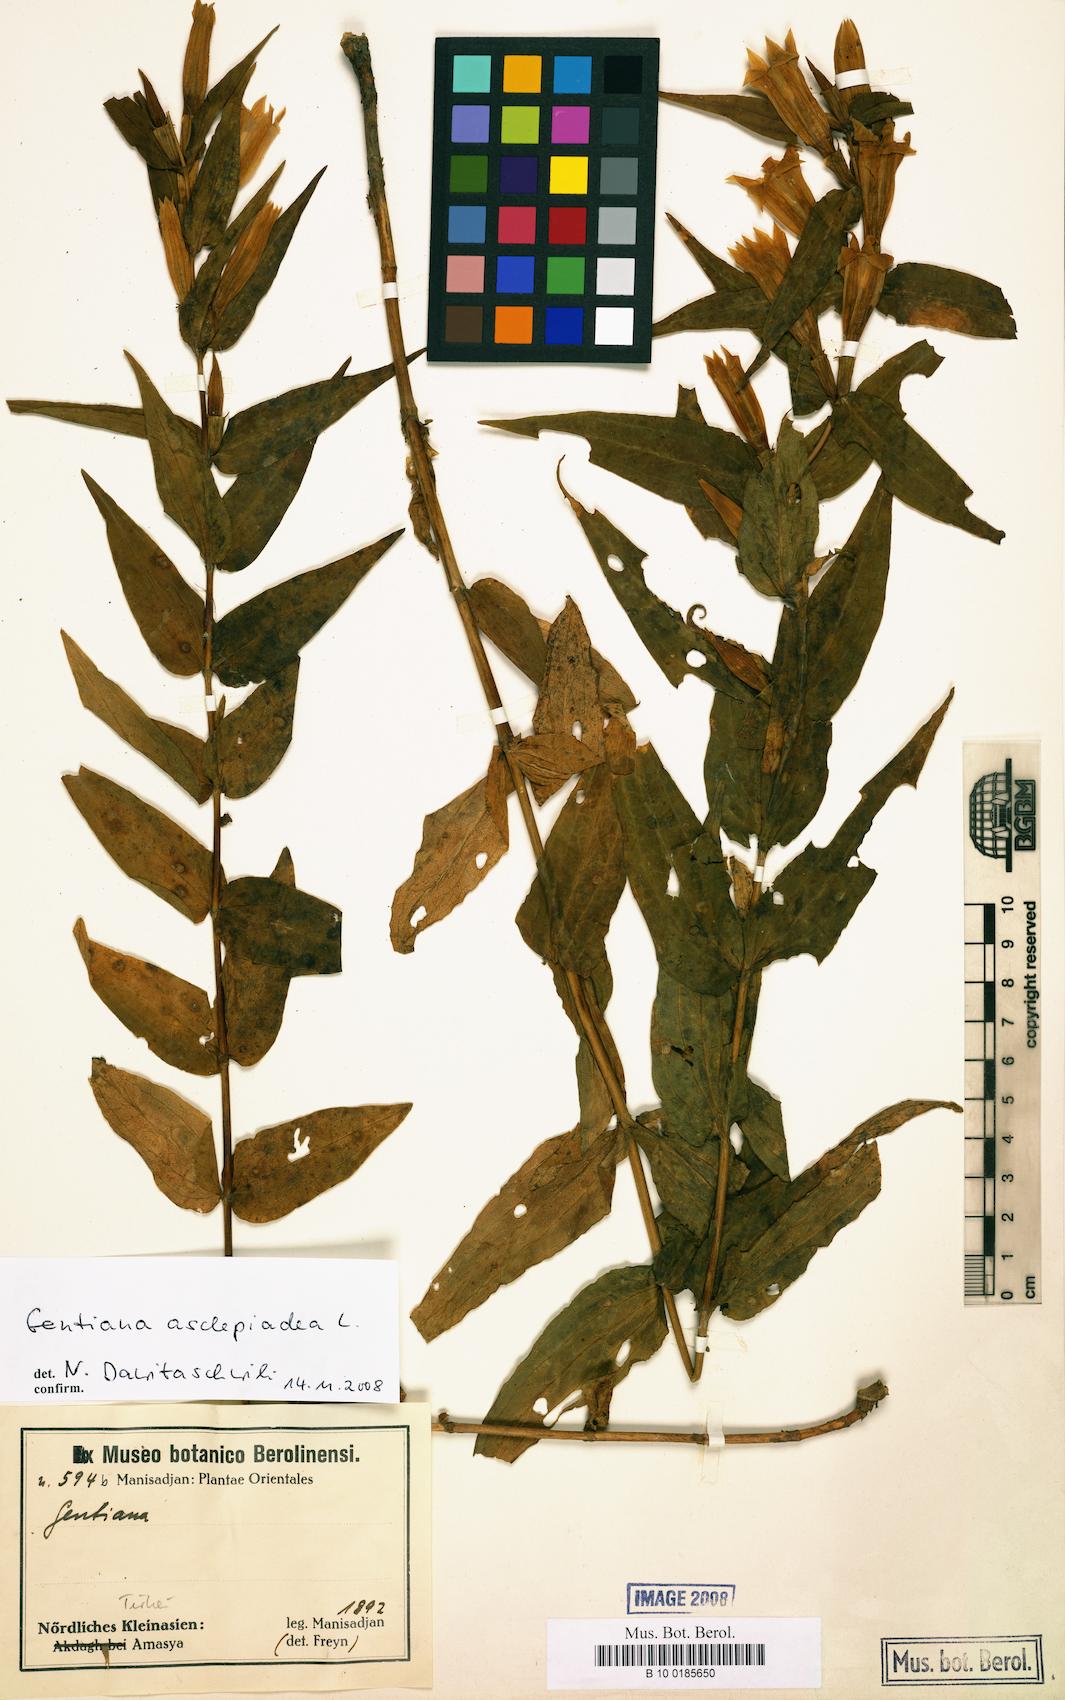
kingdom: Plantae
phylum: Tracheophyta
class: Magnoliopsida
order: Gentianales
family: Gentianaceae
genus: Gentiana
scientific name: Gentiana asclepiadea
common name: Willow gentian
